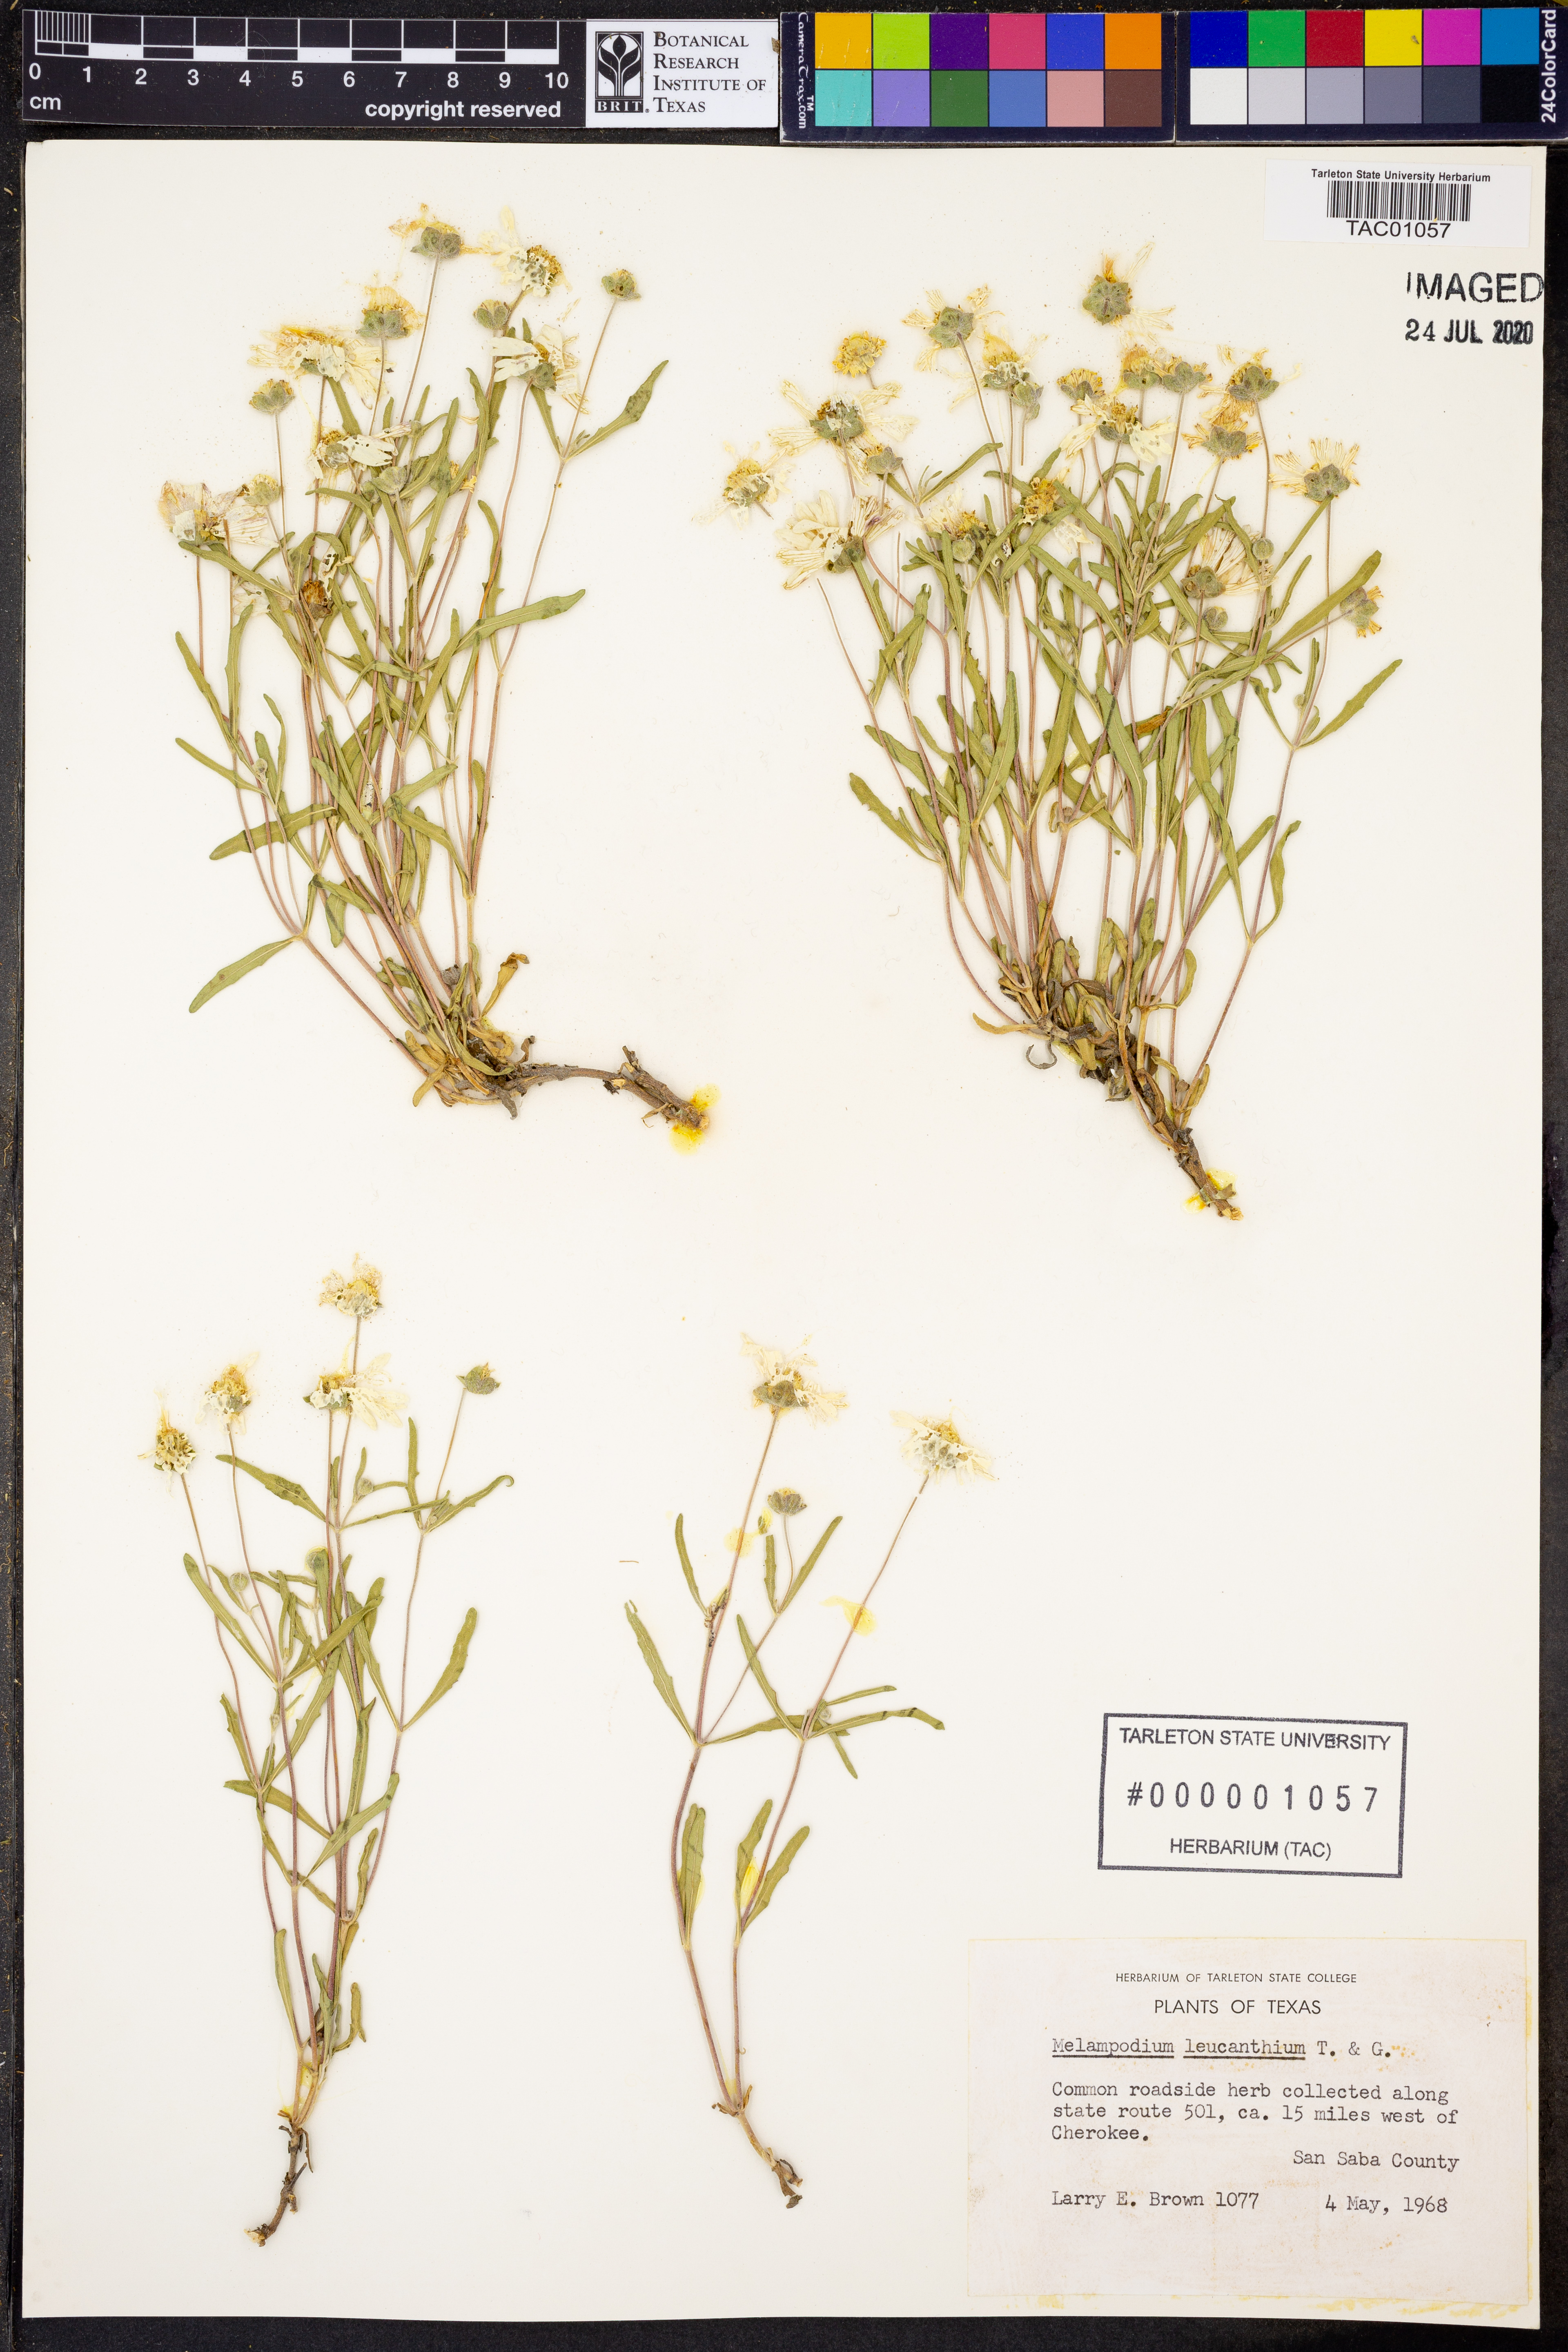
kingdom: Plantae
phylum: Tracheophyta
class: Magnoliopsida
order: Asterales
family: Asteraceae
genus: Melampodium
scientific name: Melampodium leucanthum
